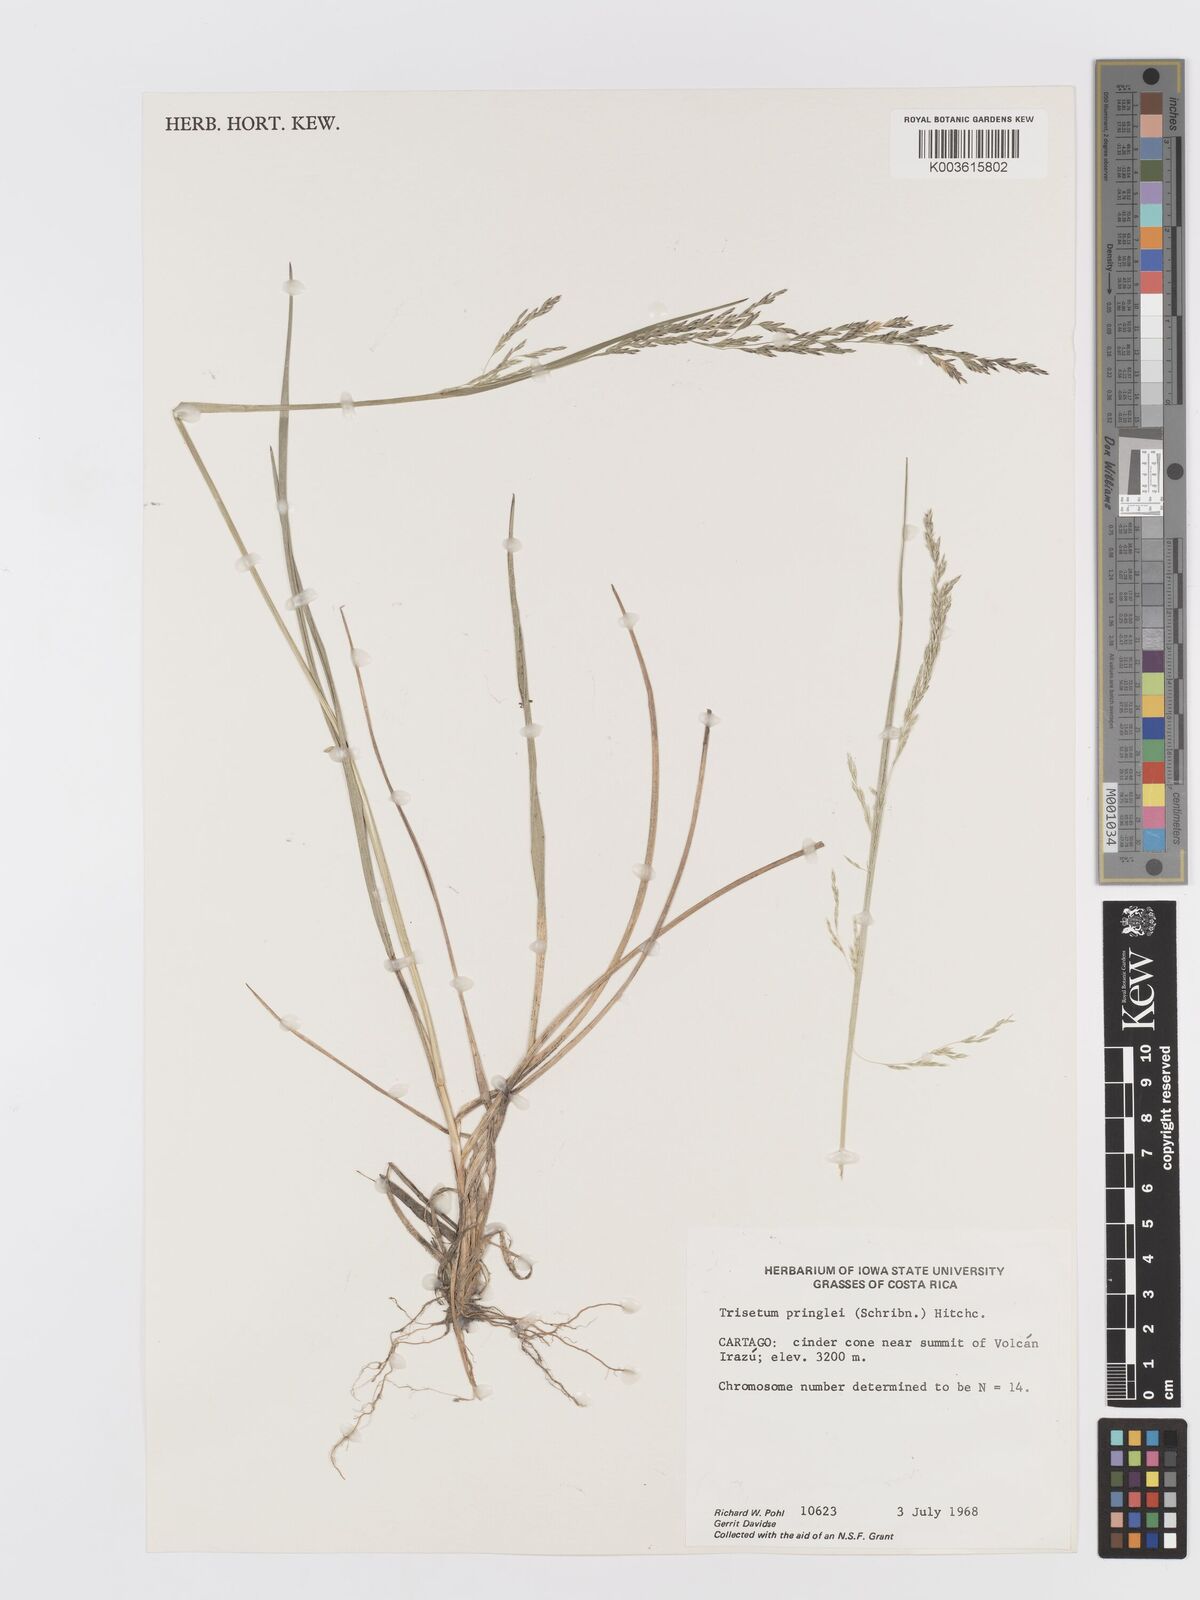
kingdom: Plantae
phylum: Tracheophyta
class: Liliopsida
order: Poales
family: Poaceae
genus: Peyritschia
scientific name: Peyritschia graphephoroides
